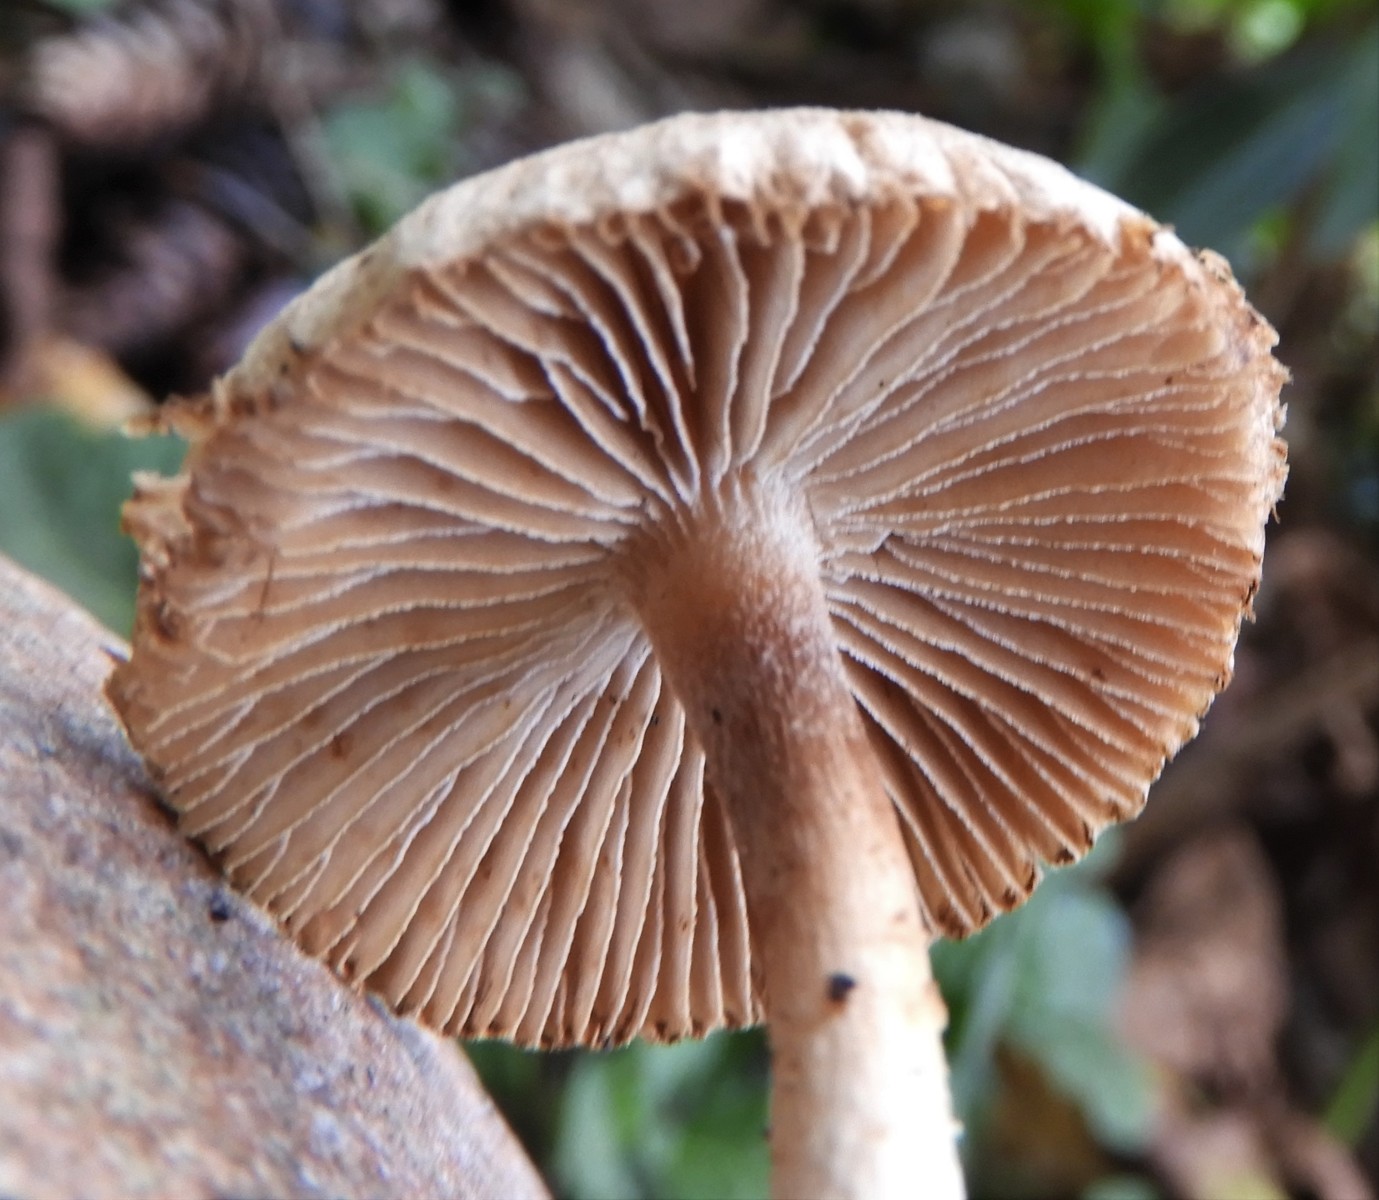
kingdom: Fungi
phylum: Basidiomycota
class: Agaricomycetes
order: Agaricales
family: Inocybaceae
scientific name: Inocybaceae
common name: trævlhatfamilien
